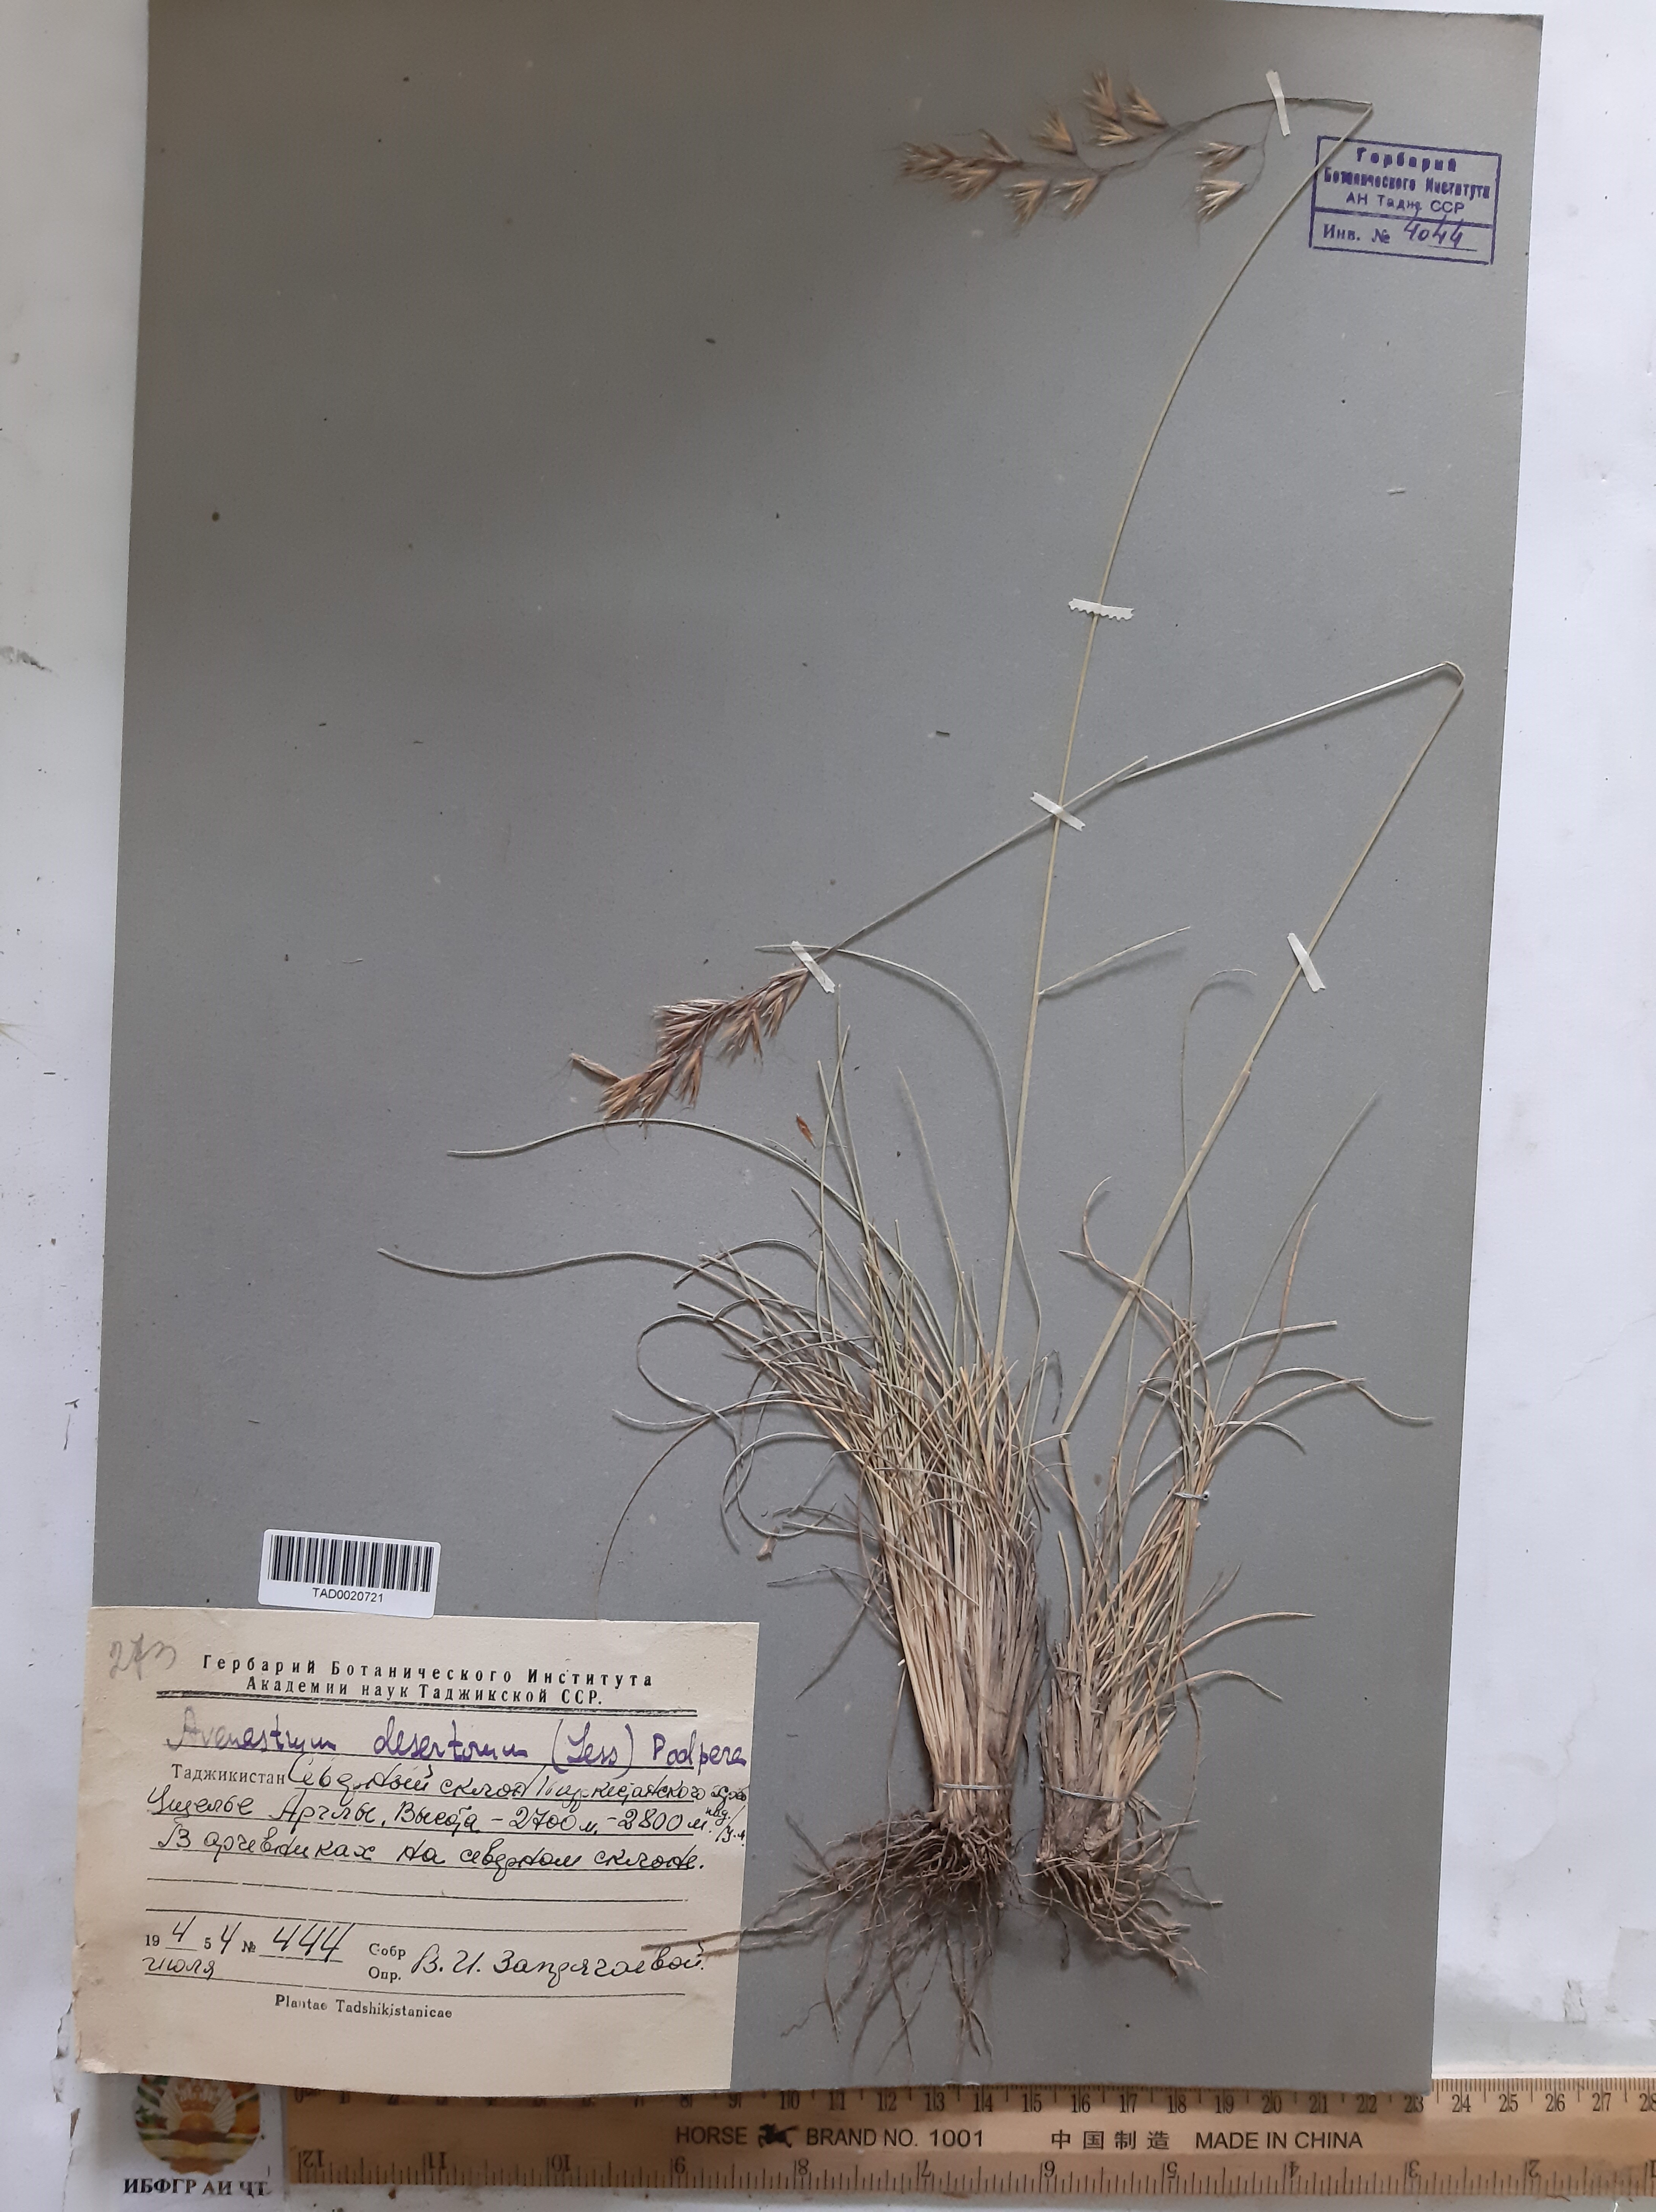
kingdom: Plantae
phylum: Tracheophyta
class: Liliopsida
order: Poales
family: Poaceae
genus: Helictotrichon
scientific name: Helictotrichon desertorum
